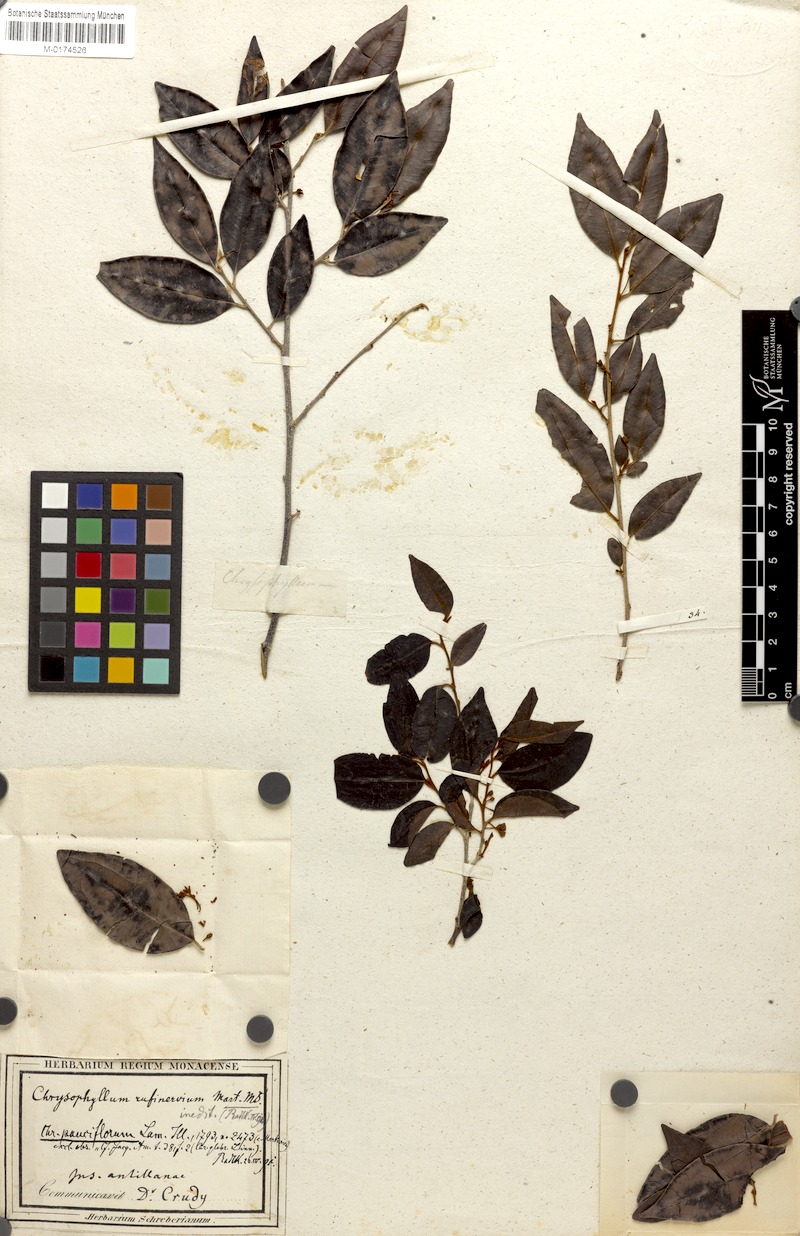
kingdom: Plantae
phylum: Tracheophyta
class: Magnoliopsida
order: Ericales
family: Sapotaceae
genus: Chrysophyllum
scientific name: Chrysophyllum pauciflorum
